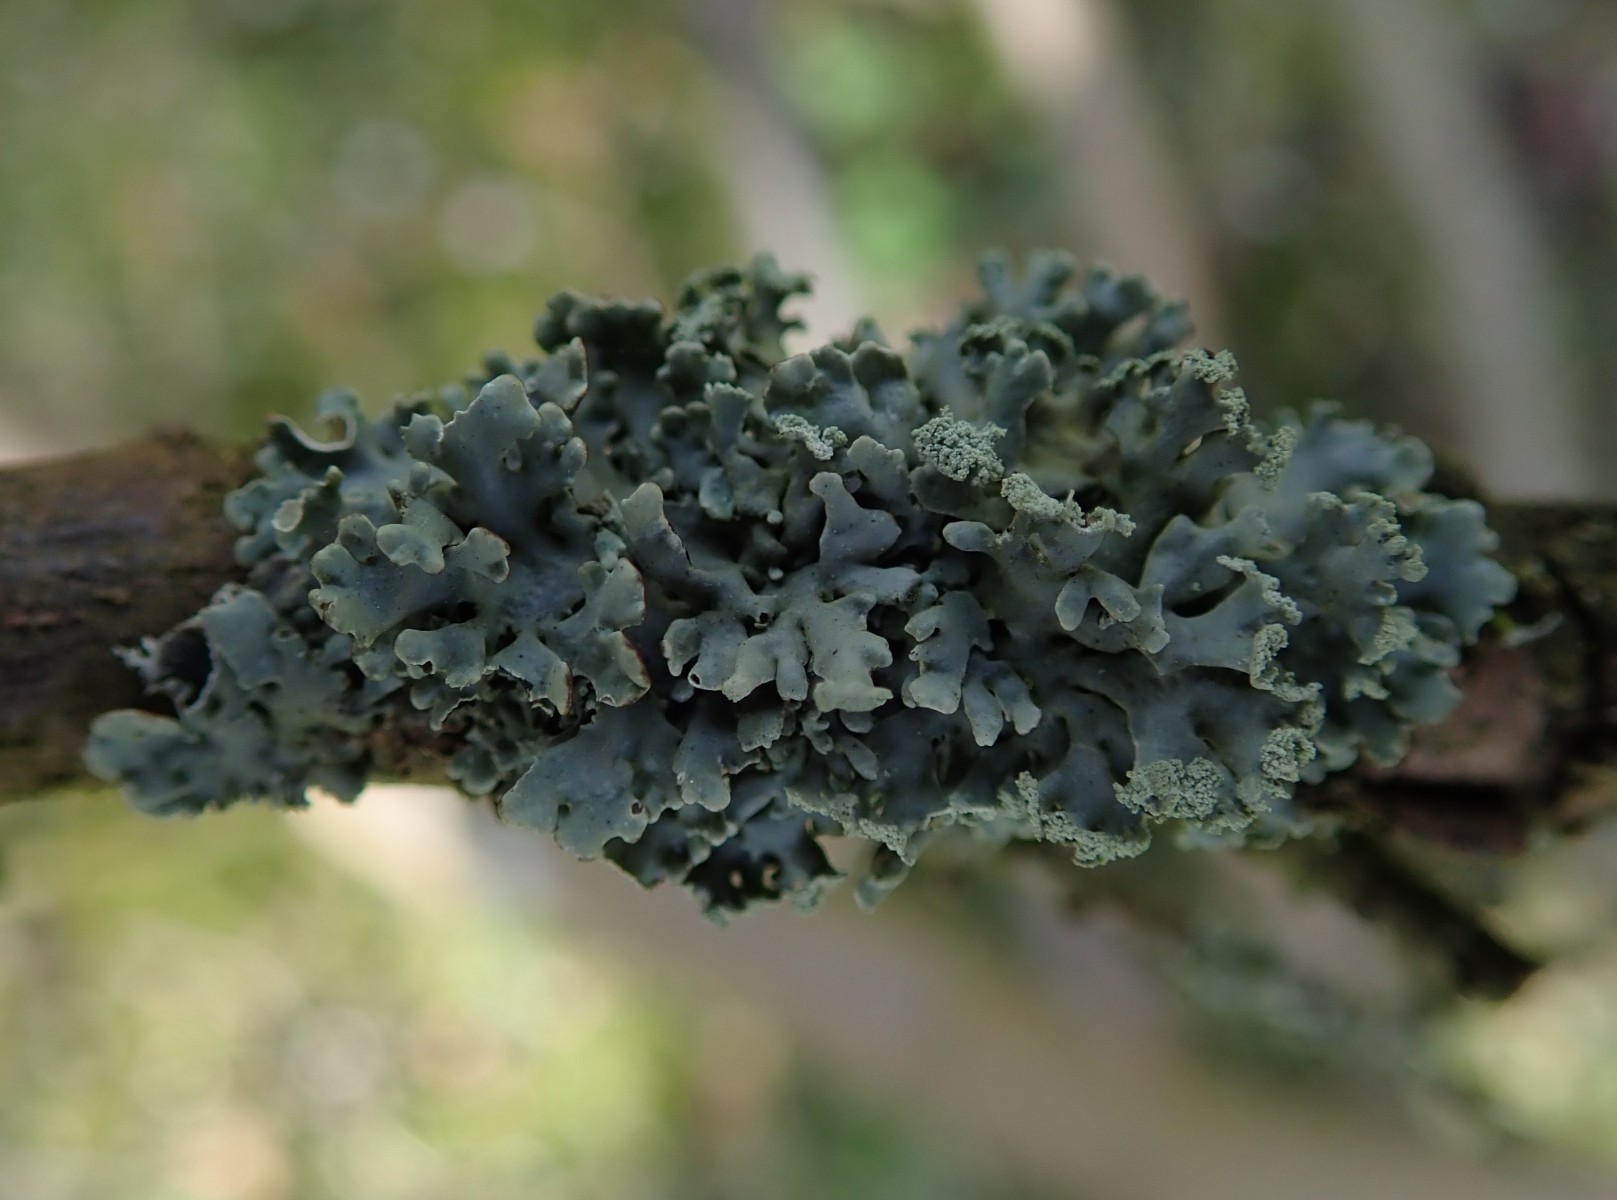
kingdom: Fungi
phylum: Ascomycota
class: Lecanoromycetes
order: Lecanorales
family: Parmeliaceae
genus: Hypogymnia
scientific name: Hypogymnia physodes
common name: almindelig kvistlav
